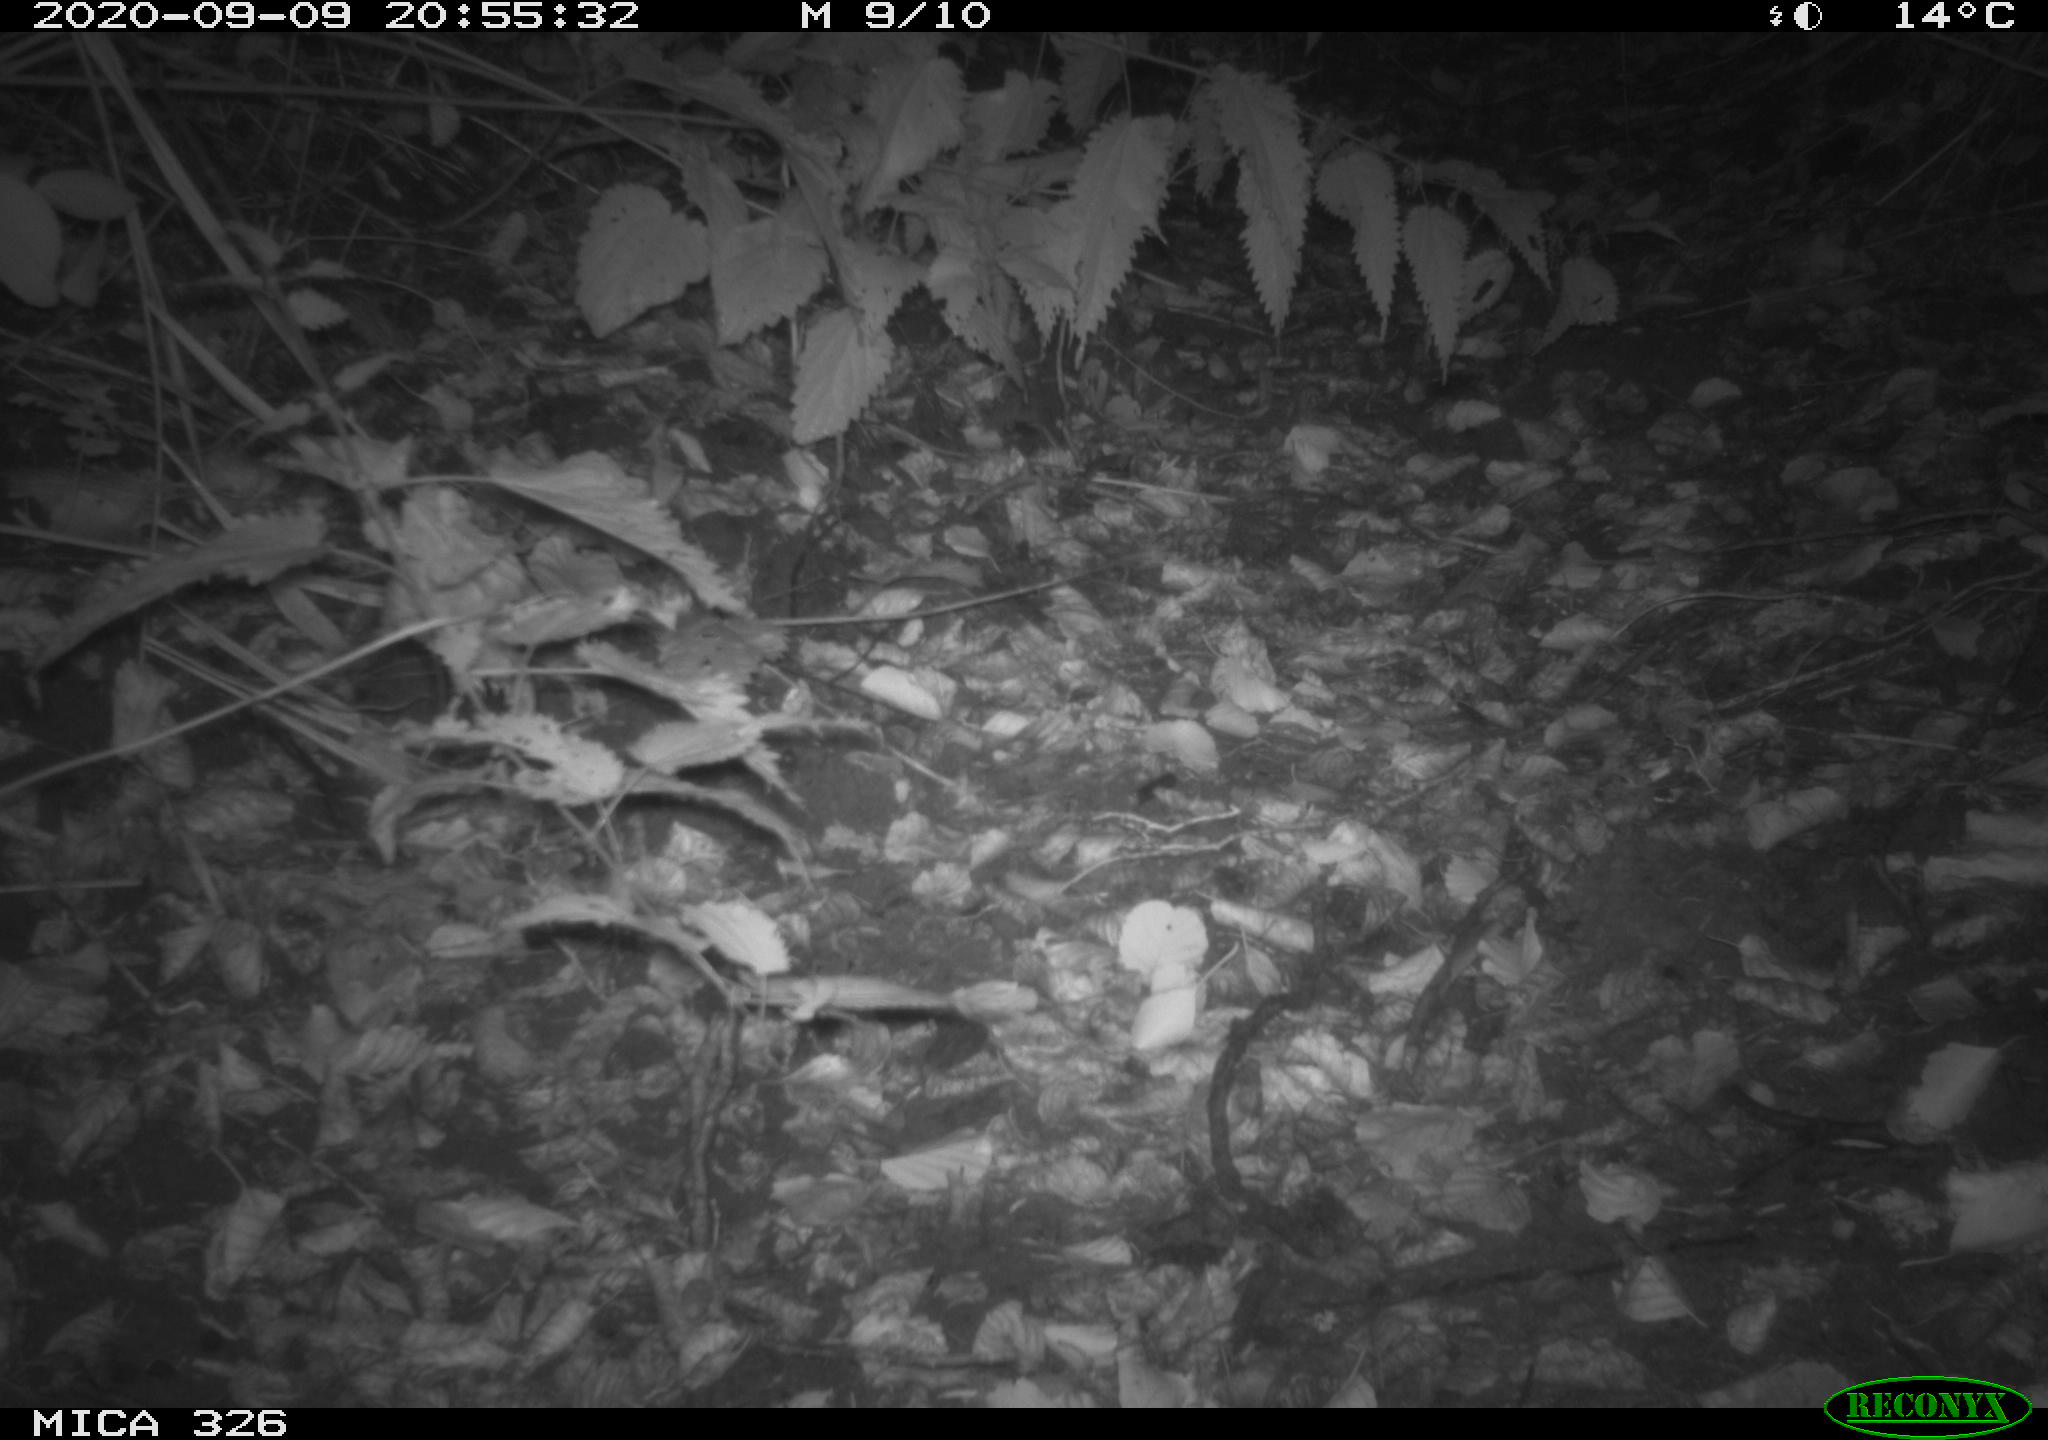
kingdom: Animalia
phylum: Chordata
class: Mammalia
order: Rodentia
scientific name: Rodentia
